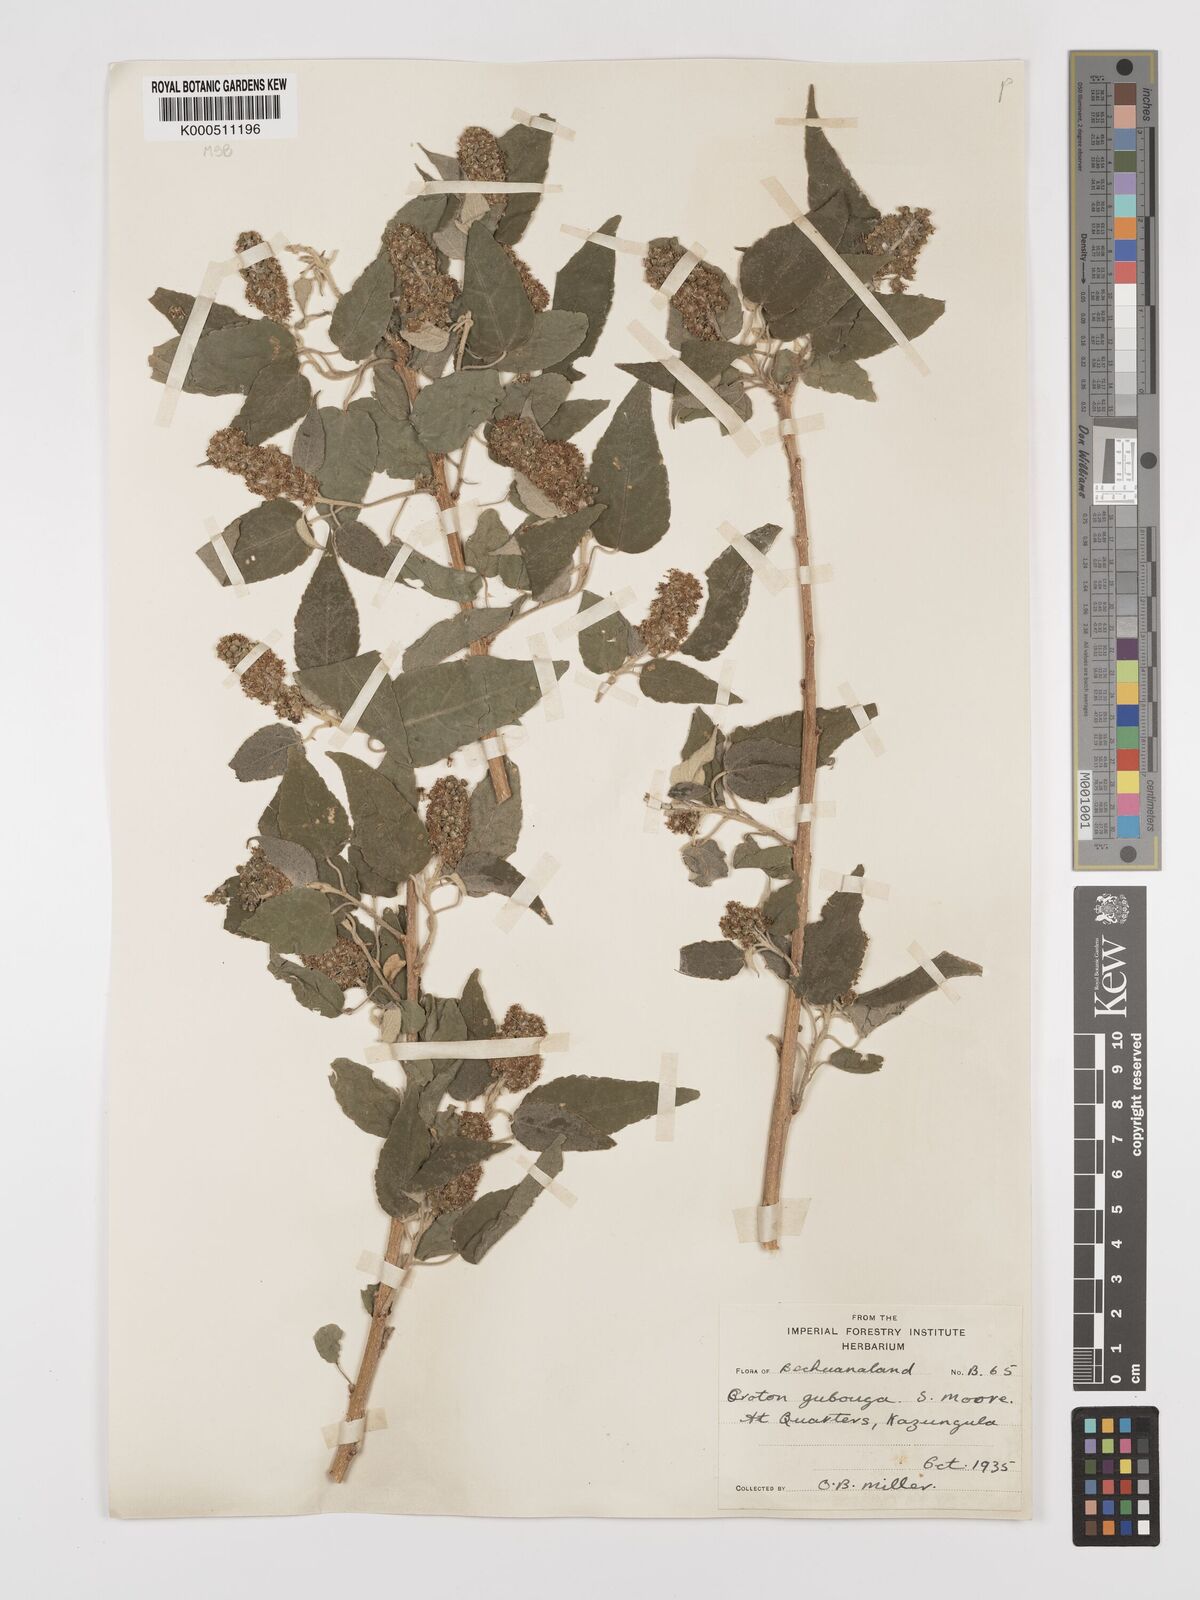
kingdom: Plantae
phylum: Tracheophyta
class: Magnoliopsida
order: Malpighiales
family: Euphorbiaceae
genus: Croton
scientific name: Croton
